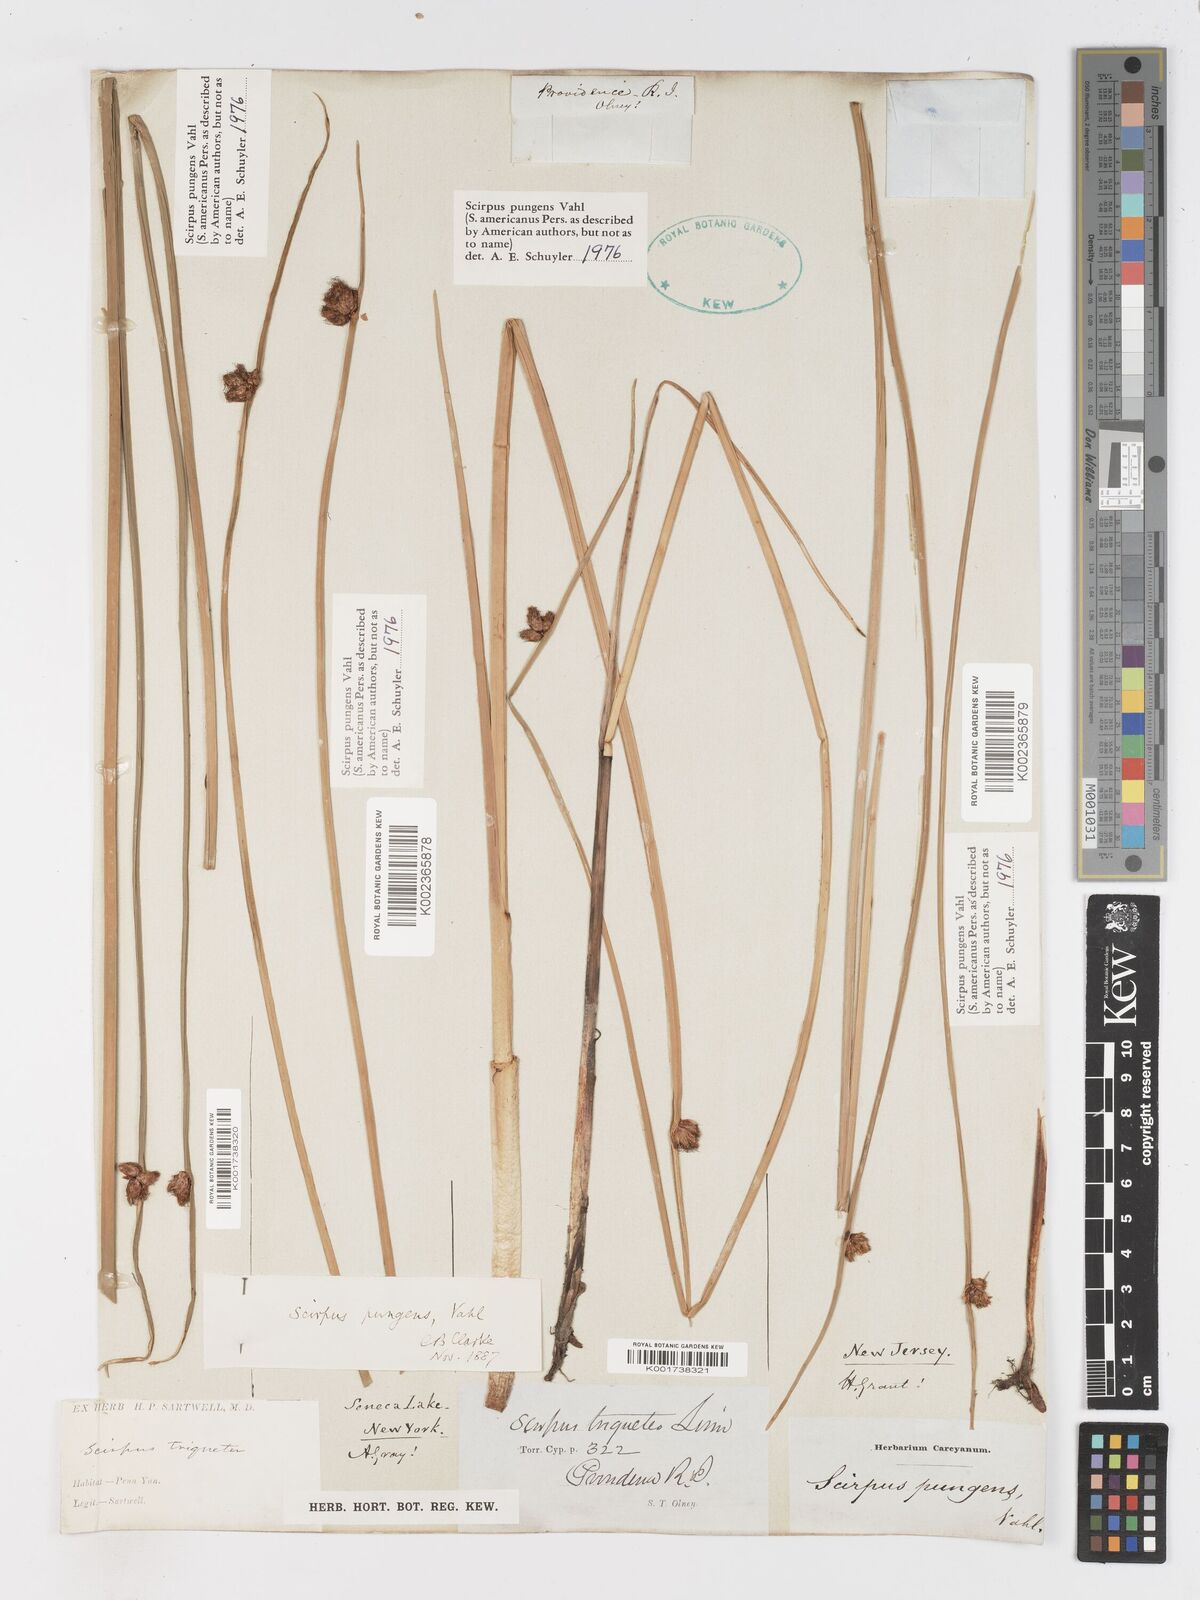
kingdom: Plantae
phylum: Tracheophyta
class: Liliopsida
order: Poales
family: Cyperaceae
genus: Schoenoplectus
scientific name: Schoenoplectus pungens
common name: Sharp club-rush
